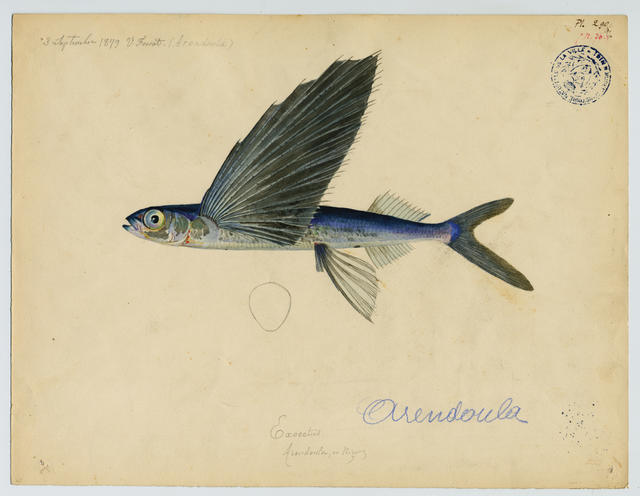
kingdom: Animalia
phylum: Chordata
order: Beloniformes
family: Exocoetidae
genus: Hirundichthys
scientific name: Hirundichthys rondeletii
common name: Blackwing flyingfish
